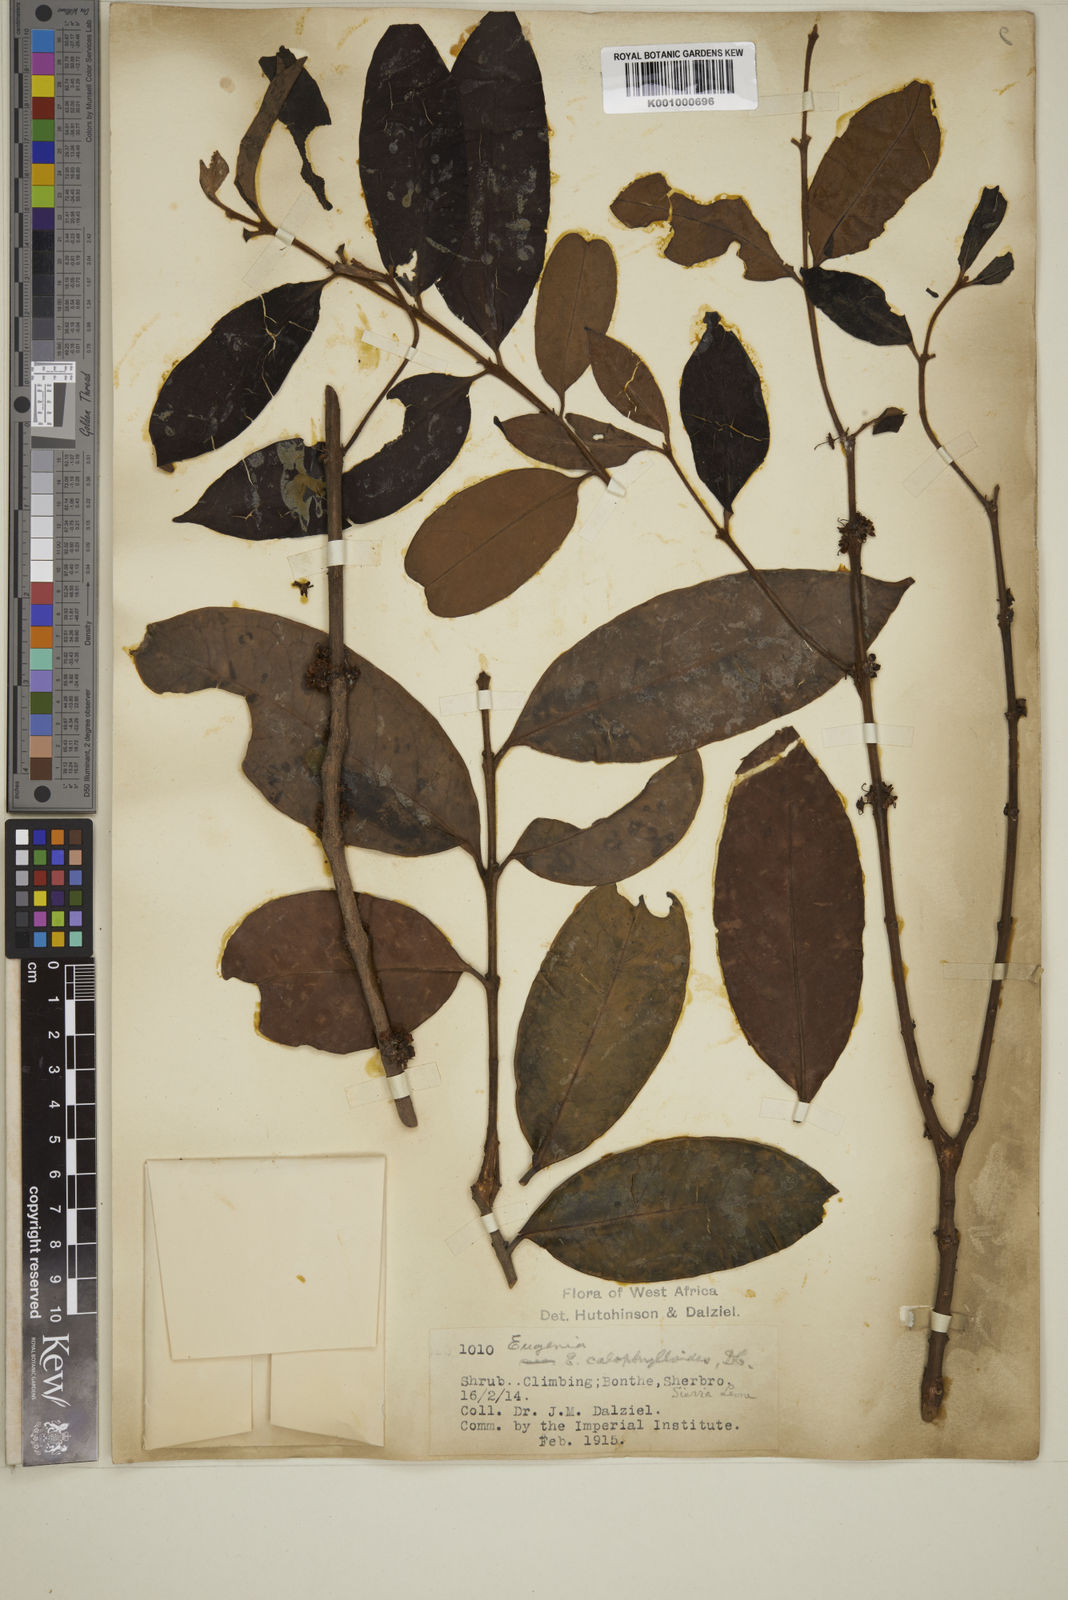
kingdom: Plantae
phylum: Tracheophyta
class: Magnoliopsida
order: Myrtales
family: Myrtaceae
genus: Eugenia
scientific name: Eugenia calophylloides
